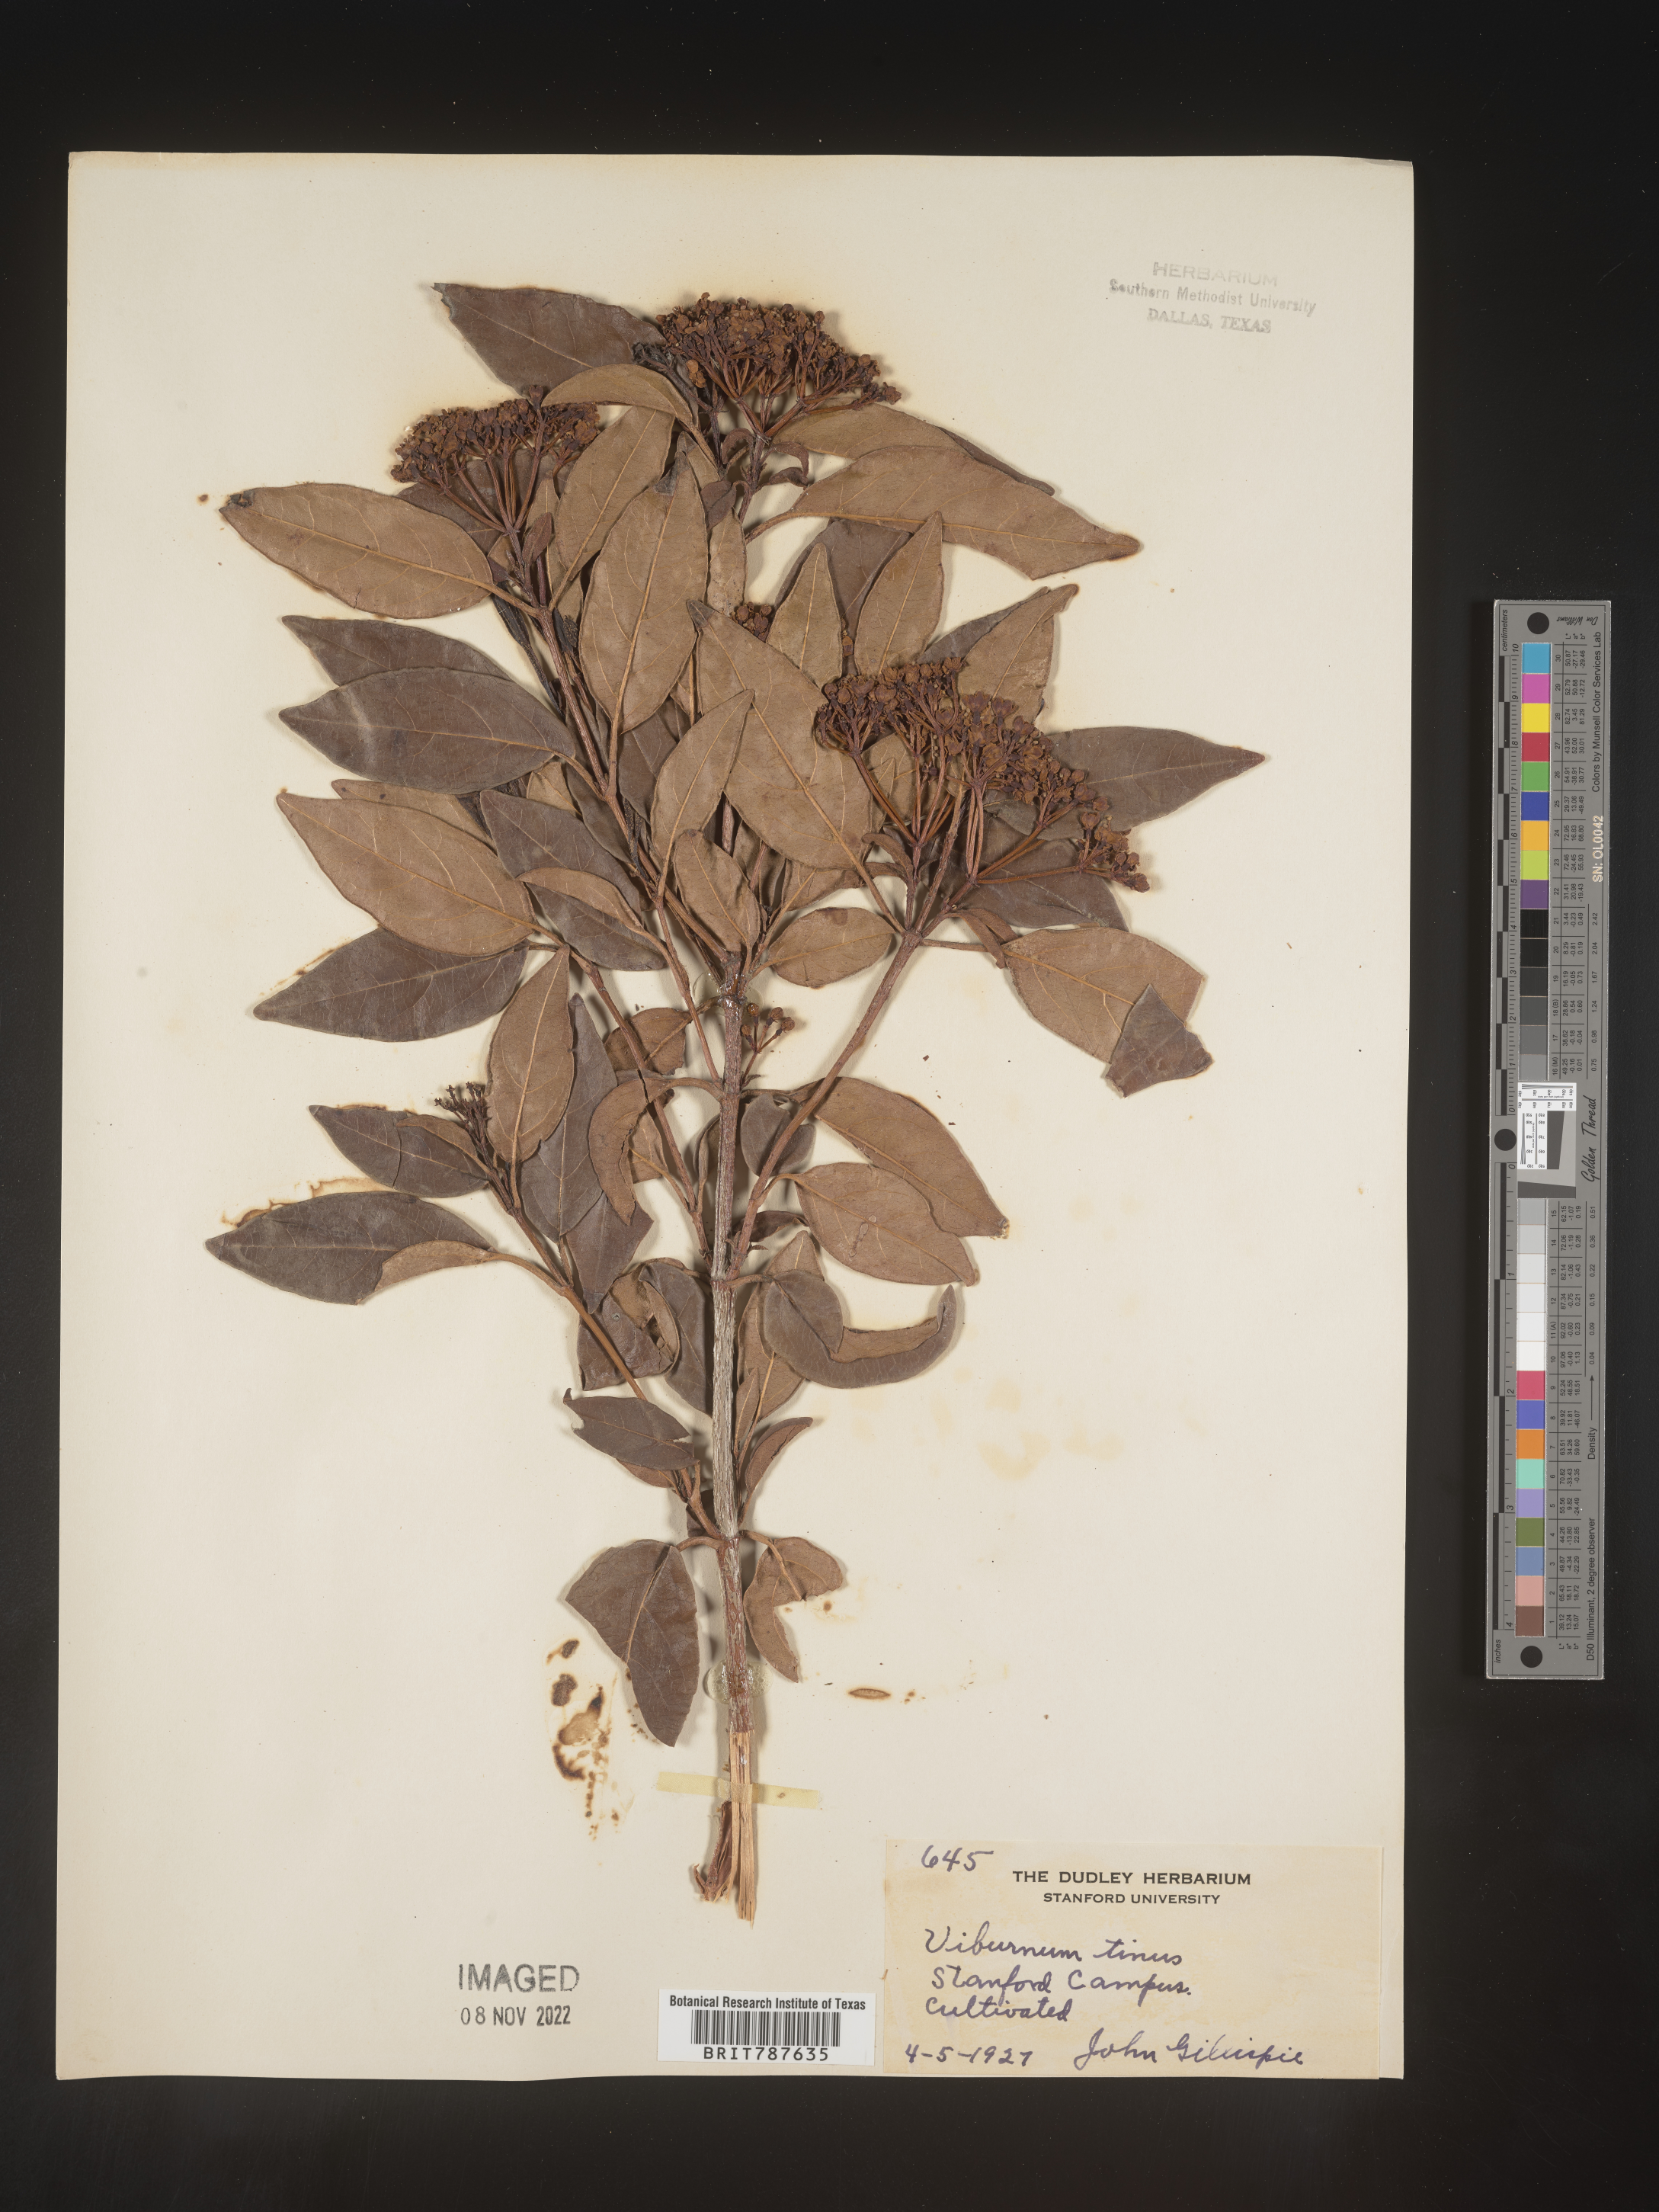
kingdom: Plantae
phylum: Tracheophyta
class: Magnoliopsida
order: Dipsacales
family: Viburnaceae
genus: Viburnum
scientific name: Viburnum
